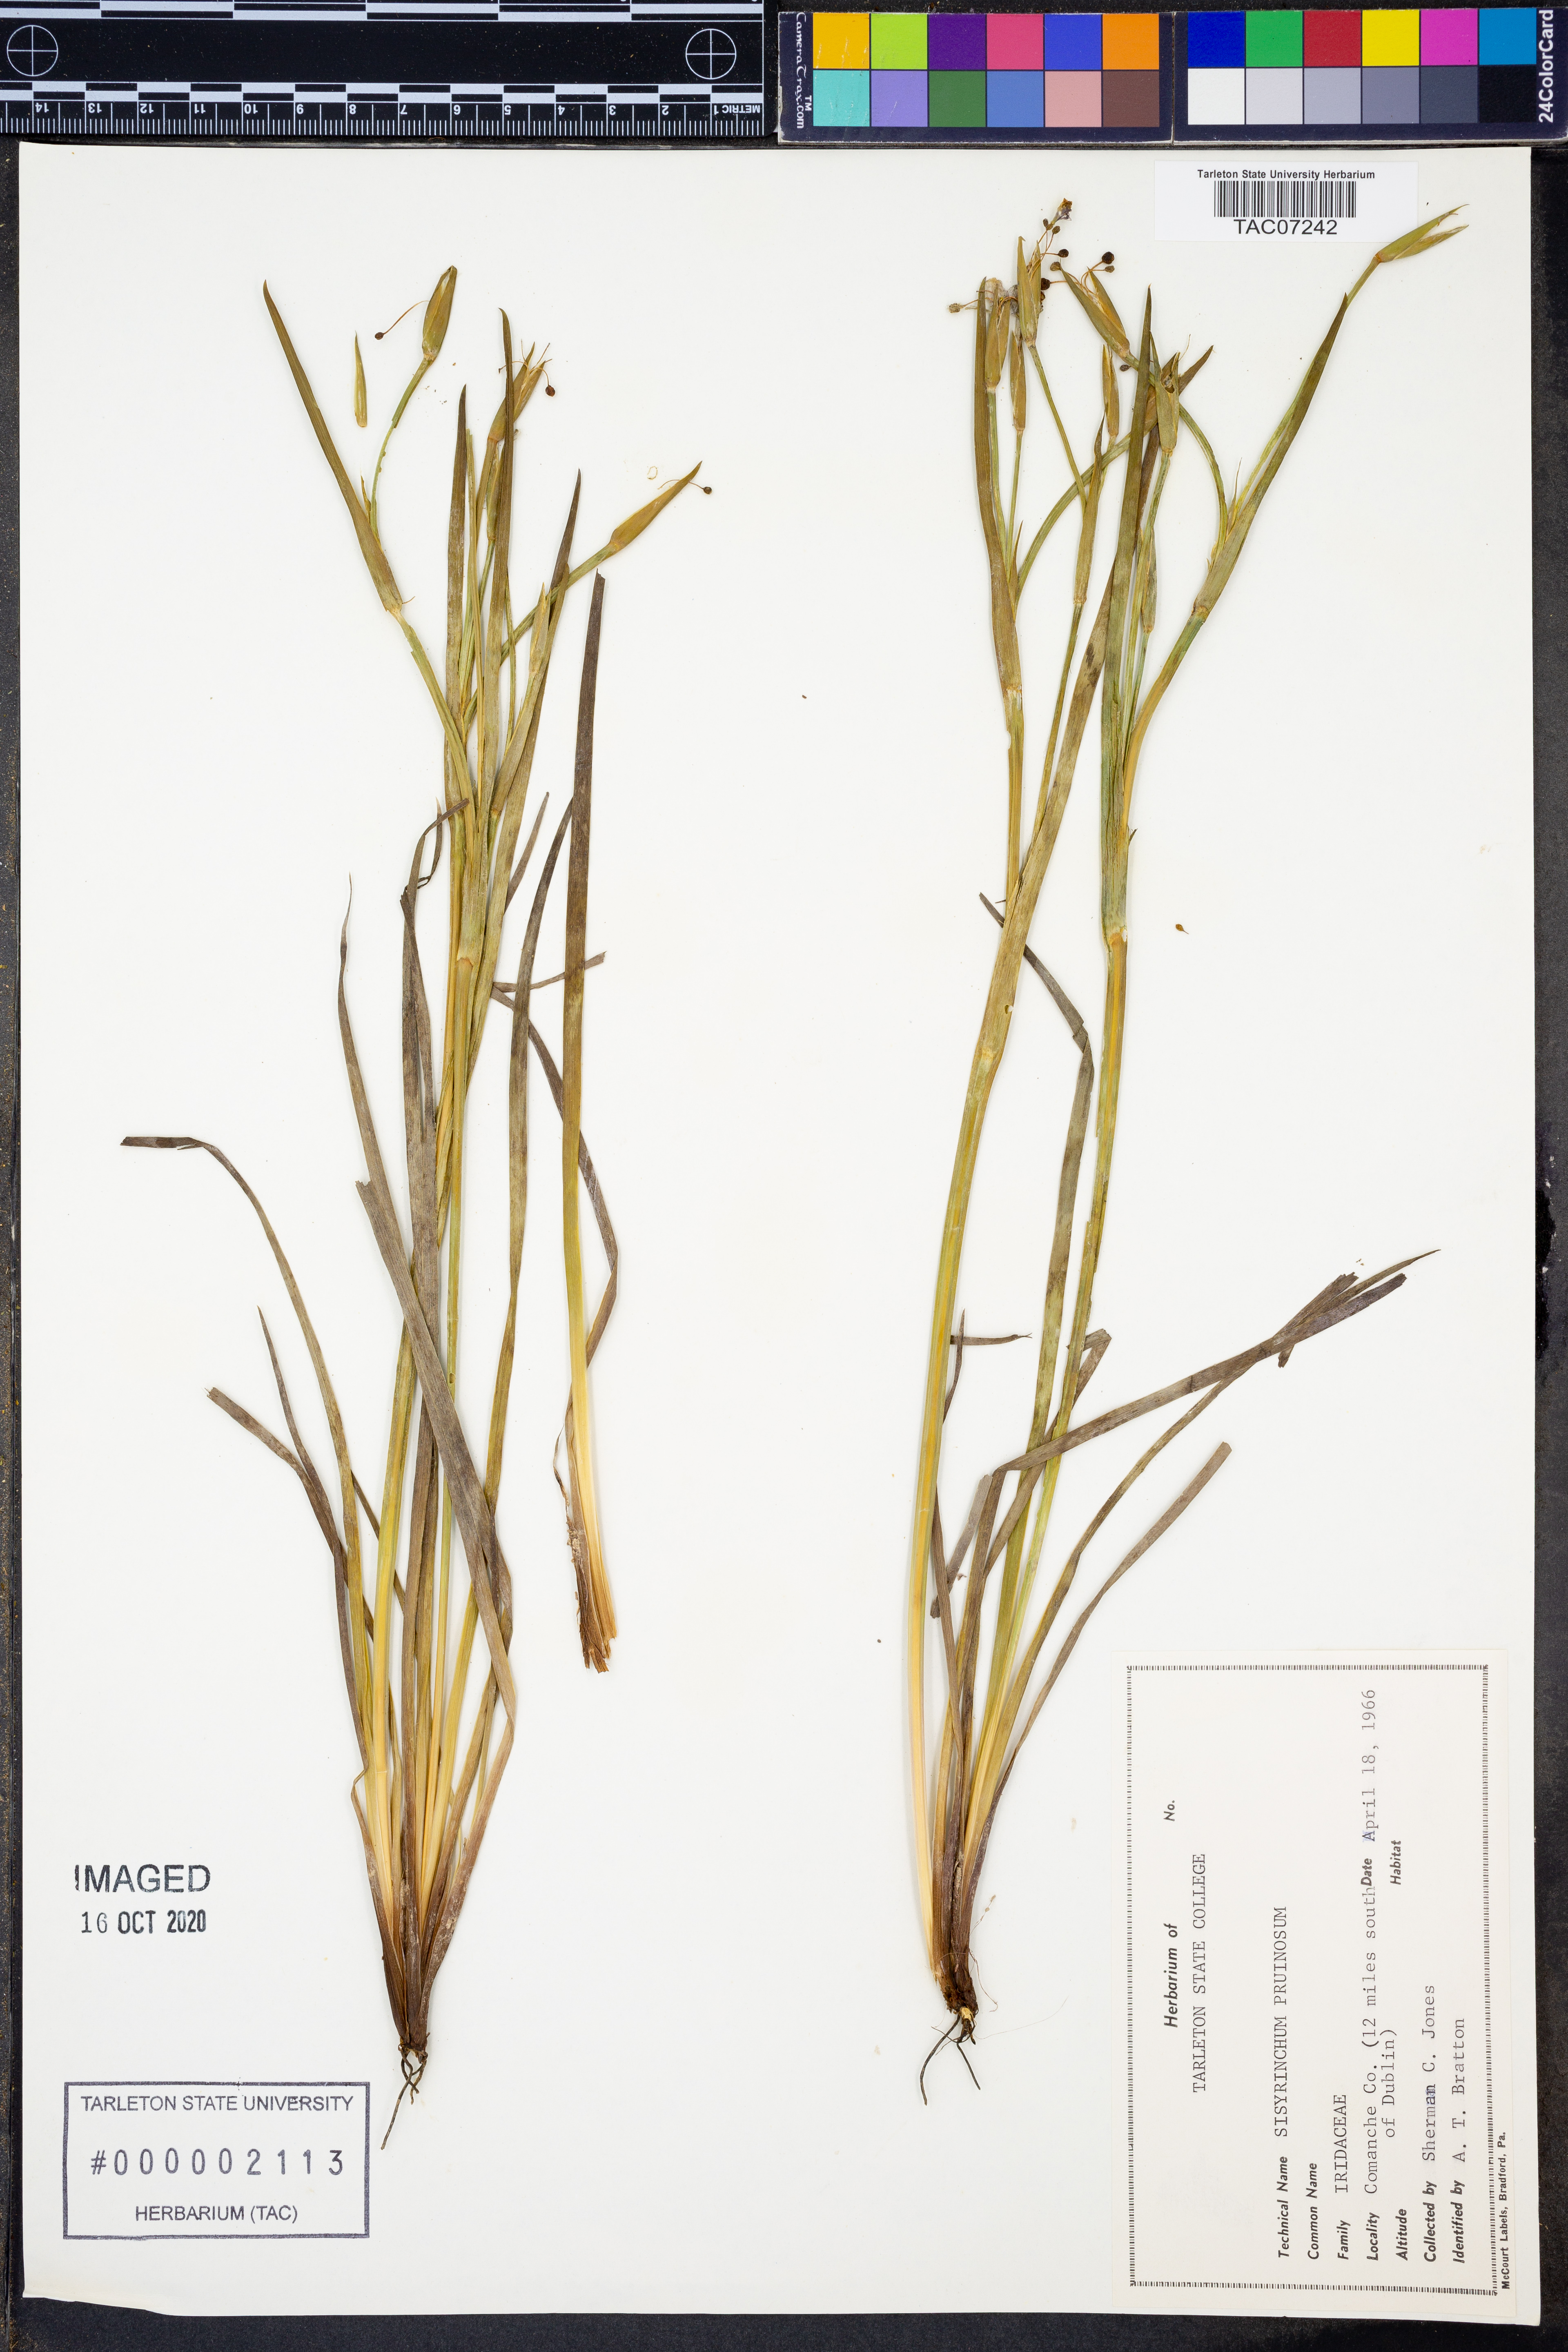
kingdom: Plantae
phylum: Tracheophyta
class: Liliopsida
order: Asparagales
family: Iridaceae
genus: Sisyrinchium
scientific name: Sisyrinchium pruinosum
